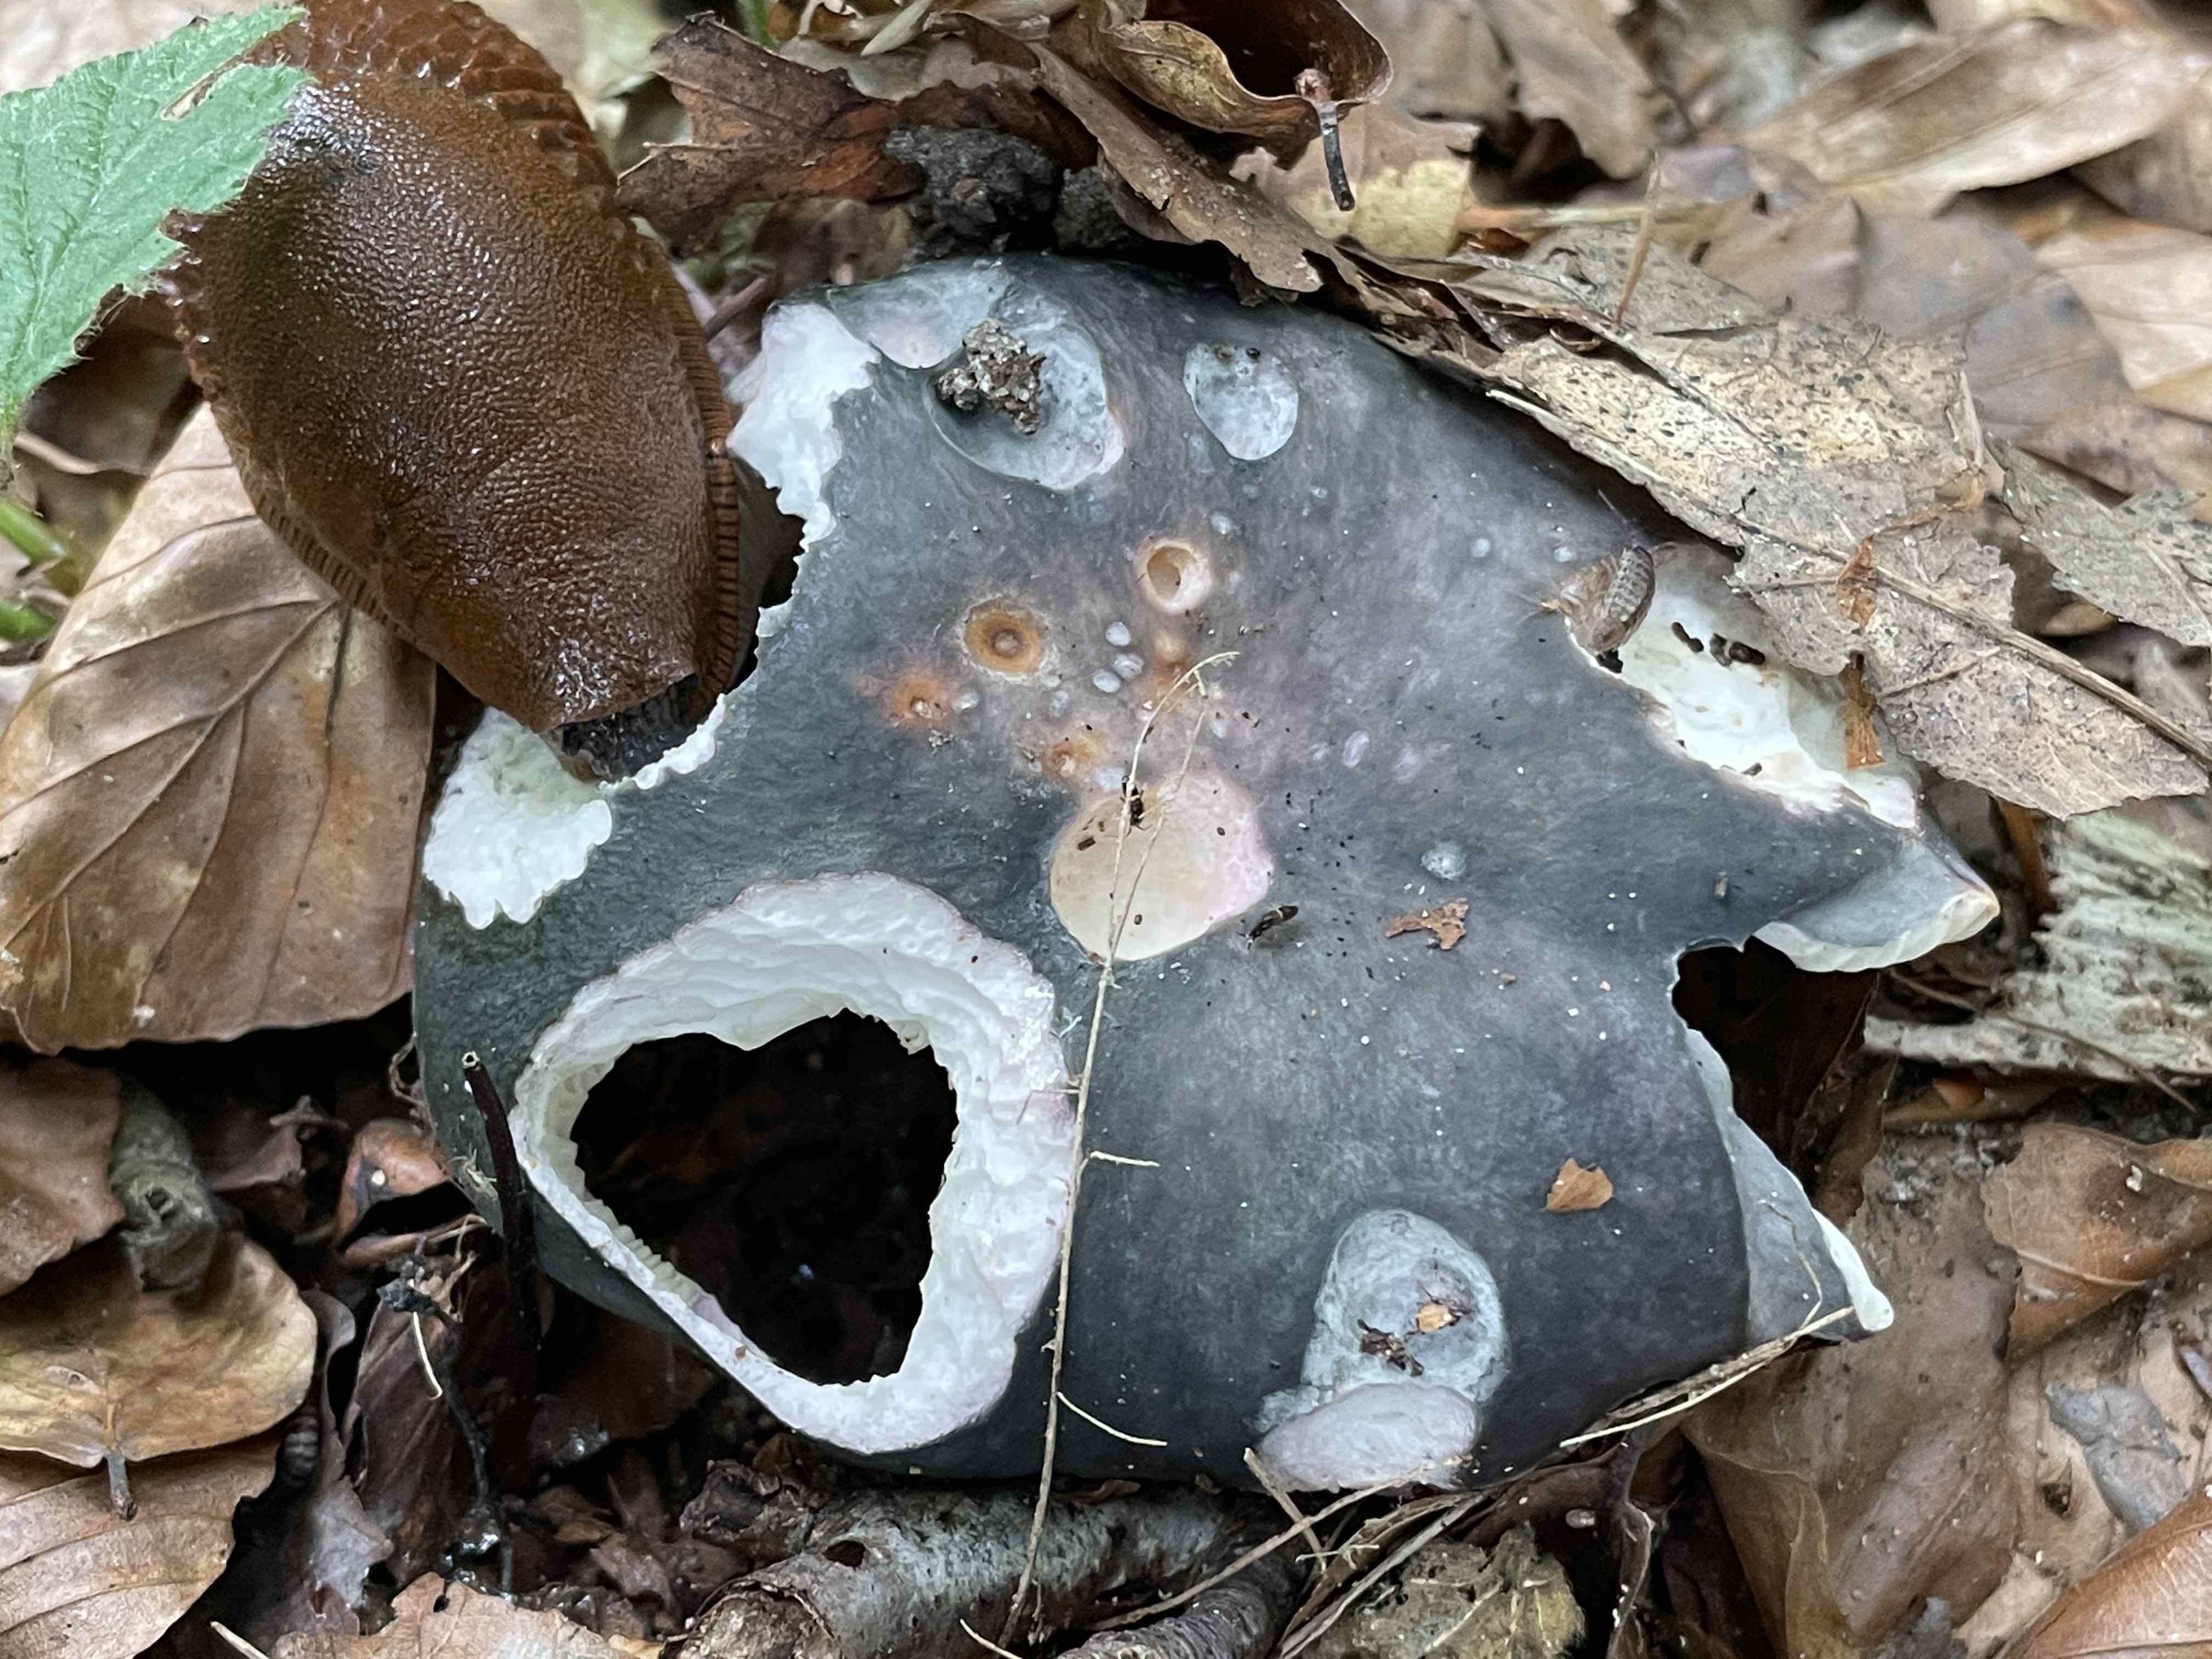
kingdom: Fungi
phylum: Basidiomycota
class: Agaricomycetes
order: Russulales
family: Russulaceae
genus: Russula
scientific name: Russula cyanoxantha
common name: broget skørhat
